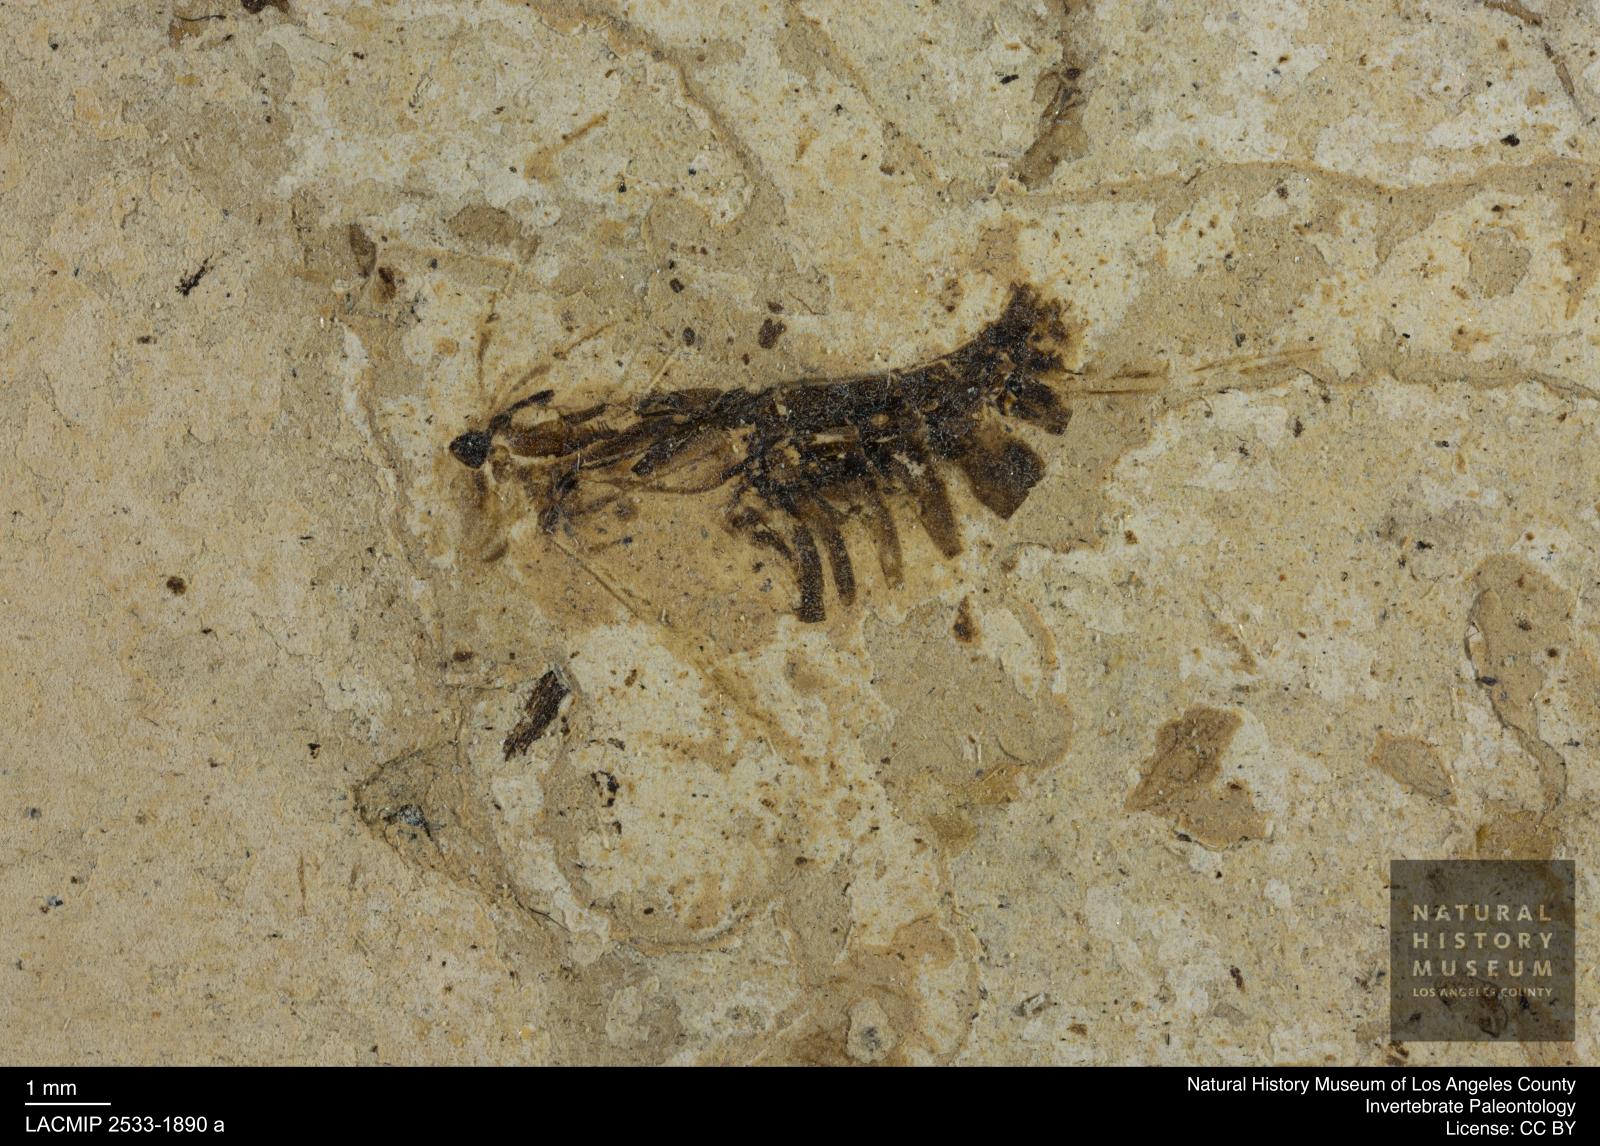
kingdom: Animalia
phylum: Arthropoda
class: Insecta
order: Hemiptera
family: Notonectidae
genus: Anisops
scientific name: Anisops Notonecta deichmuelleri
